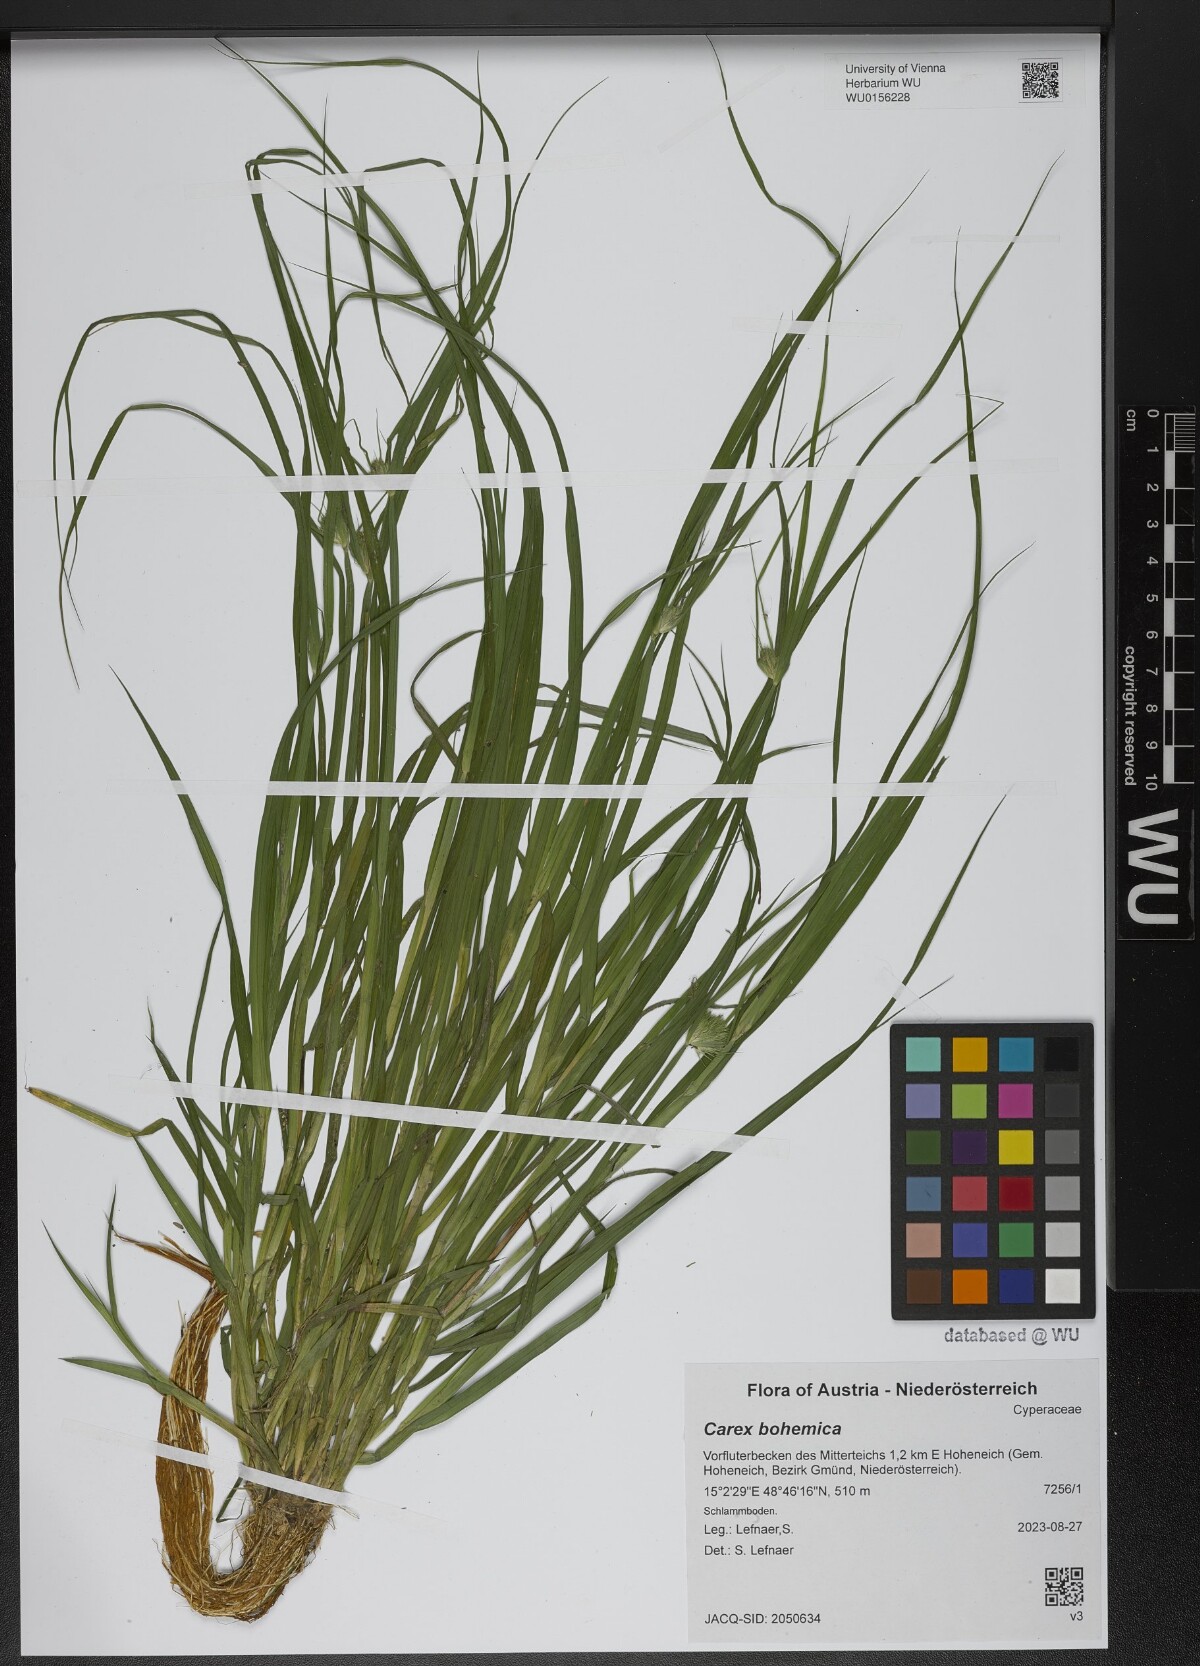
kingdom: Plantae
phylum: Tracheophyta
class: Liliopsida
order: Poales
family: Cyperaceae
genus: Carex
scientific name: Carex bohemica
